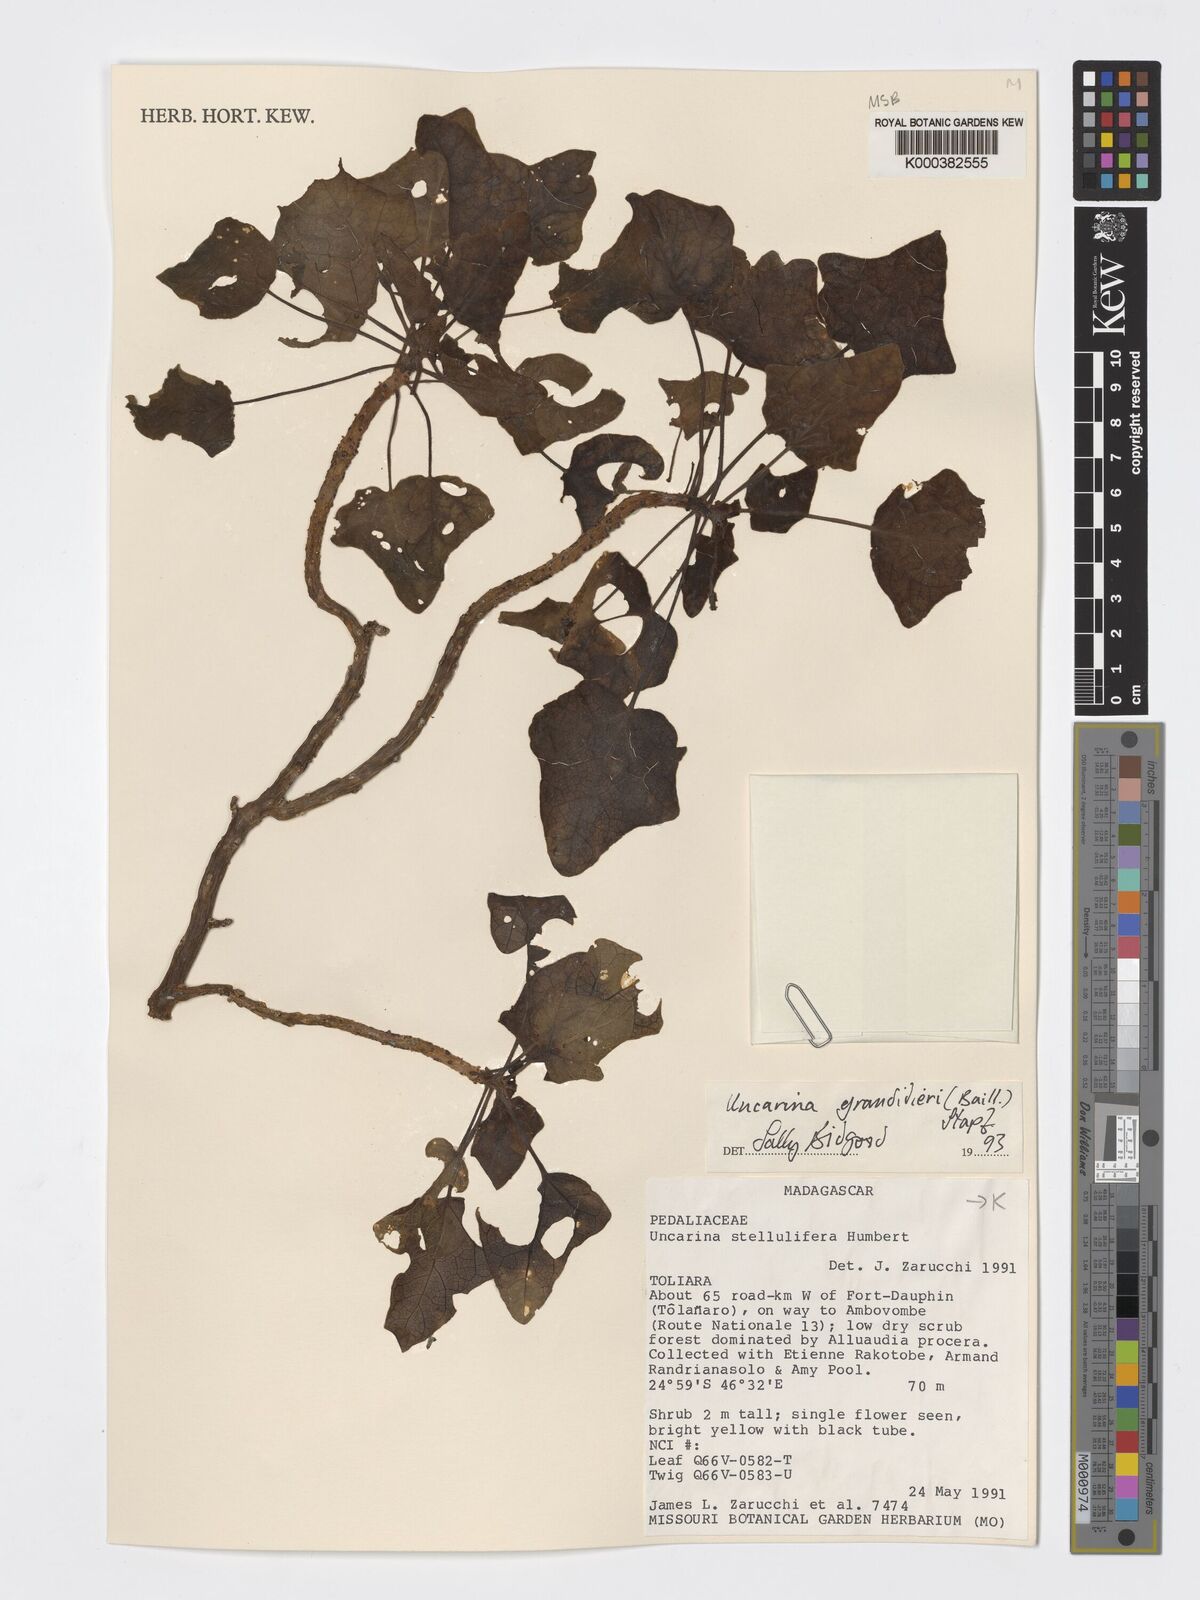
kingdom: Plantae
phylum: Tracheophyta
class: Magnoliopsida
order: Lamiales
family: Pedaliaceae
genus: Uncarina
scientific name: Uncarina
